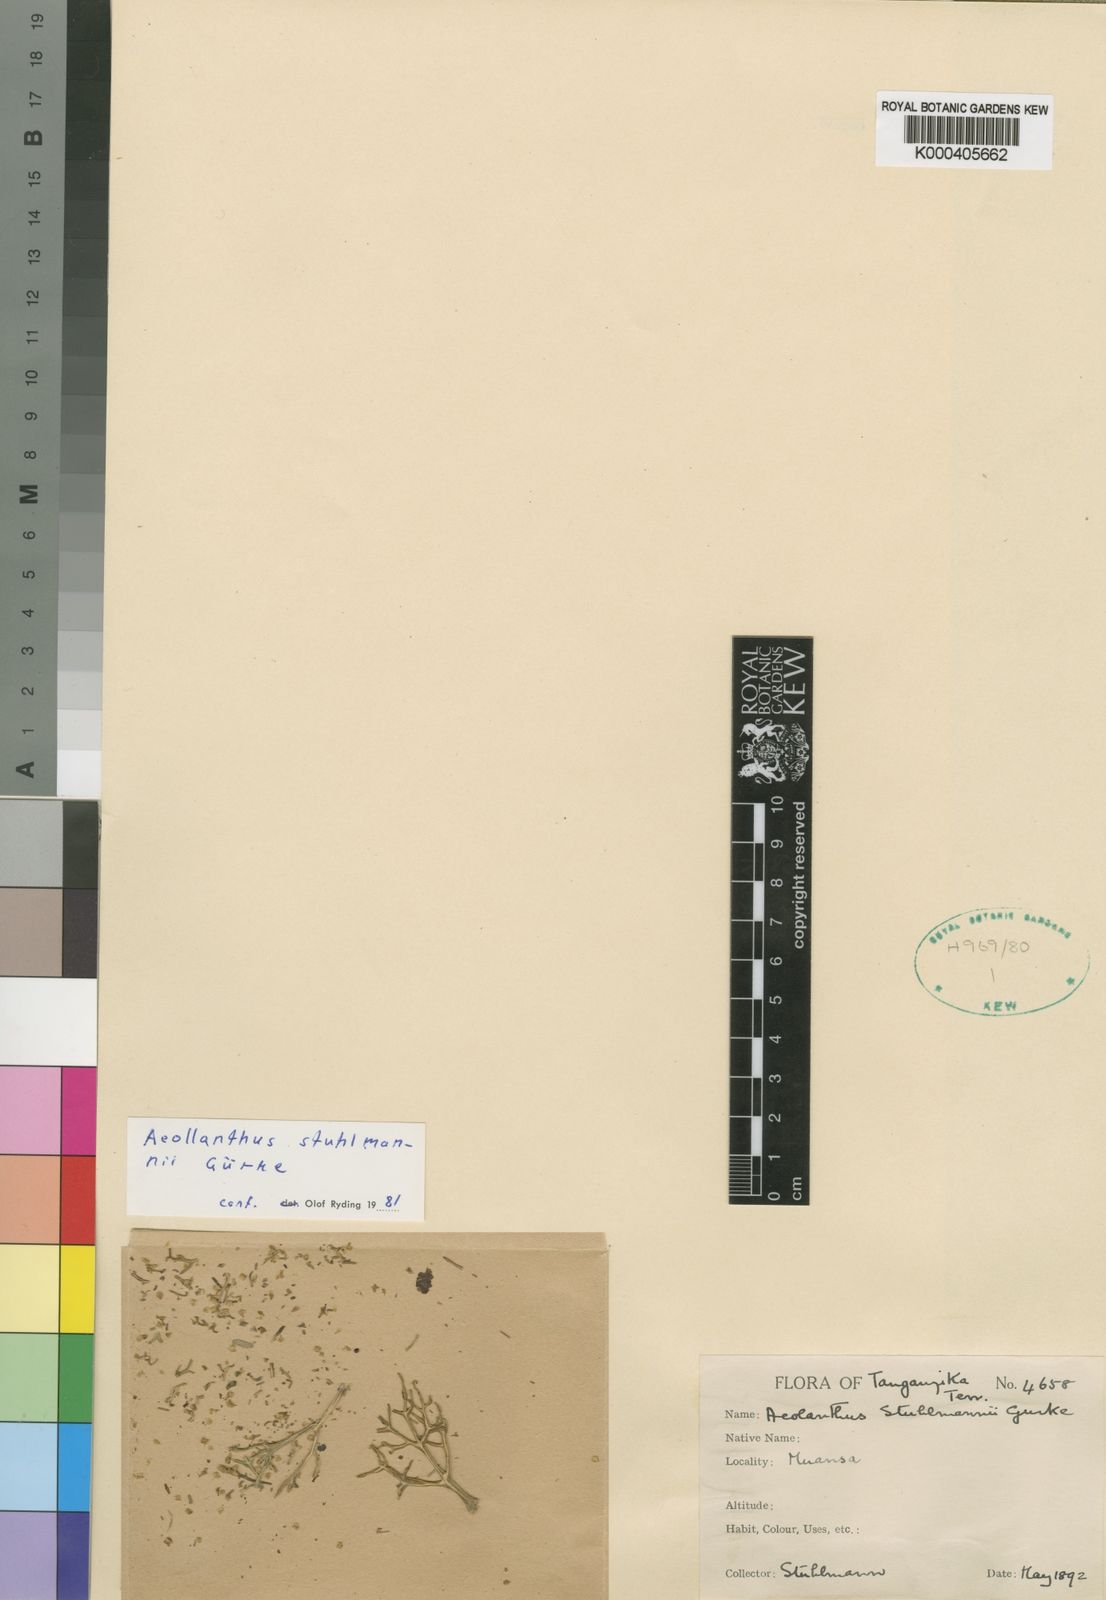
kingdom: Plantae
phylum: Tracheophyta
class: Magnoliopsida
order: Lamiales
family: Lamiaceae
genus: Aeollanthus
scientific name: Aeollanthus
